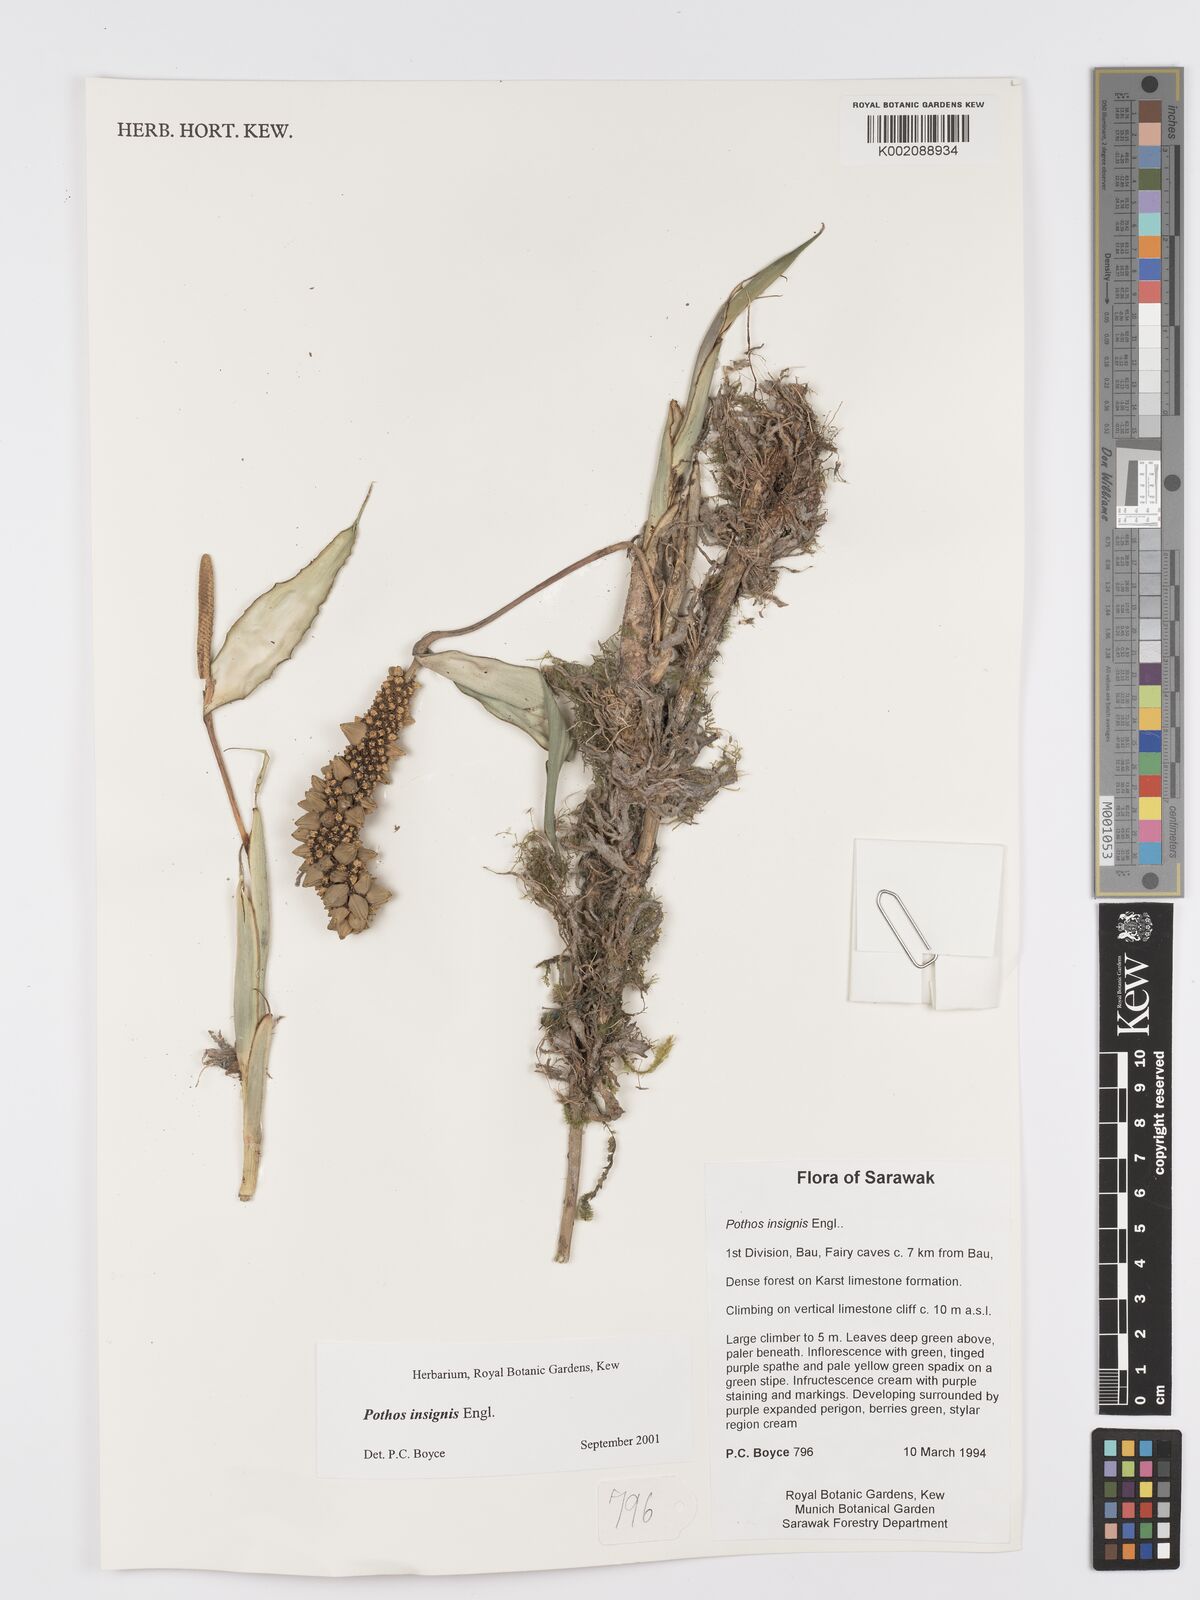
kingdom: Plantae
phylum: Tracheophyta
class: Liliopsida
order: Alismatales
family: Araceae
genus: Pothos
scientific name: Pothos insignis
